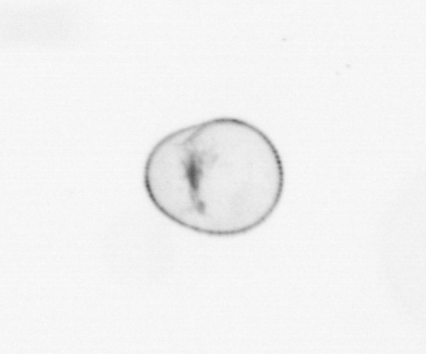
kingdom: Chromista
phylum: Myzozoa
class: Dinophyceae
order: Noctilucales
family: Noctilucaceae
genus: Noctiluca
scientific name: Noctiluca scintillans
